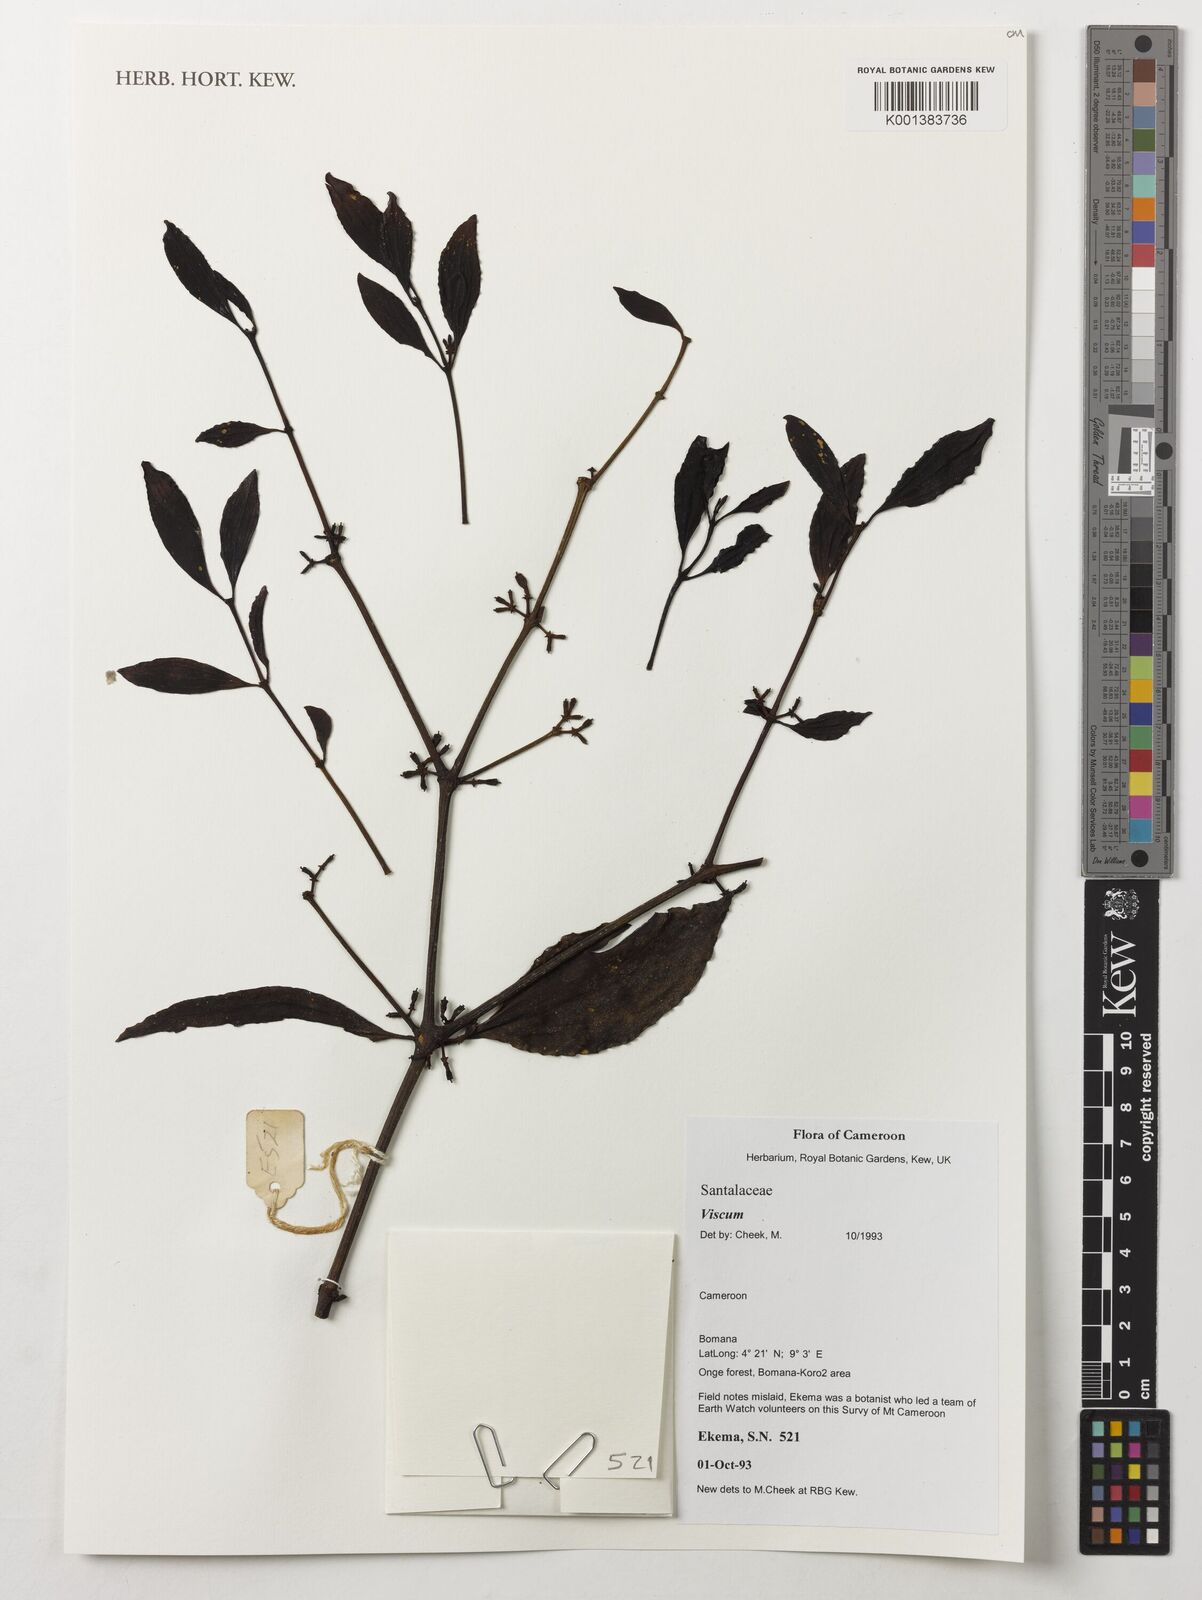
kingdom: Plantae
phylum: Tracheophyta
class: Magnoliopsida
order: Santalales
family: Viscaceae
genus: Viscum
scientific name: Viscum
